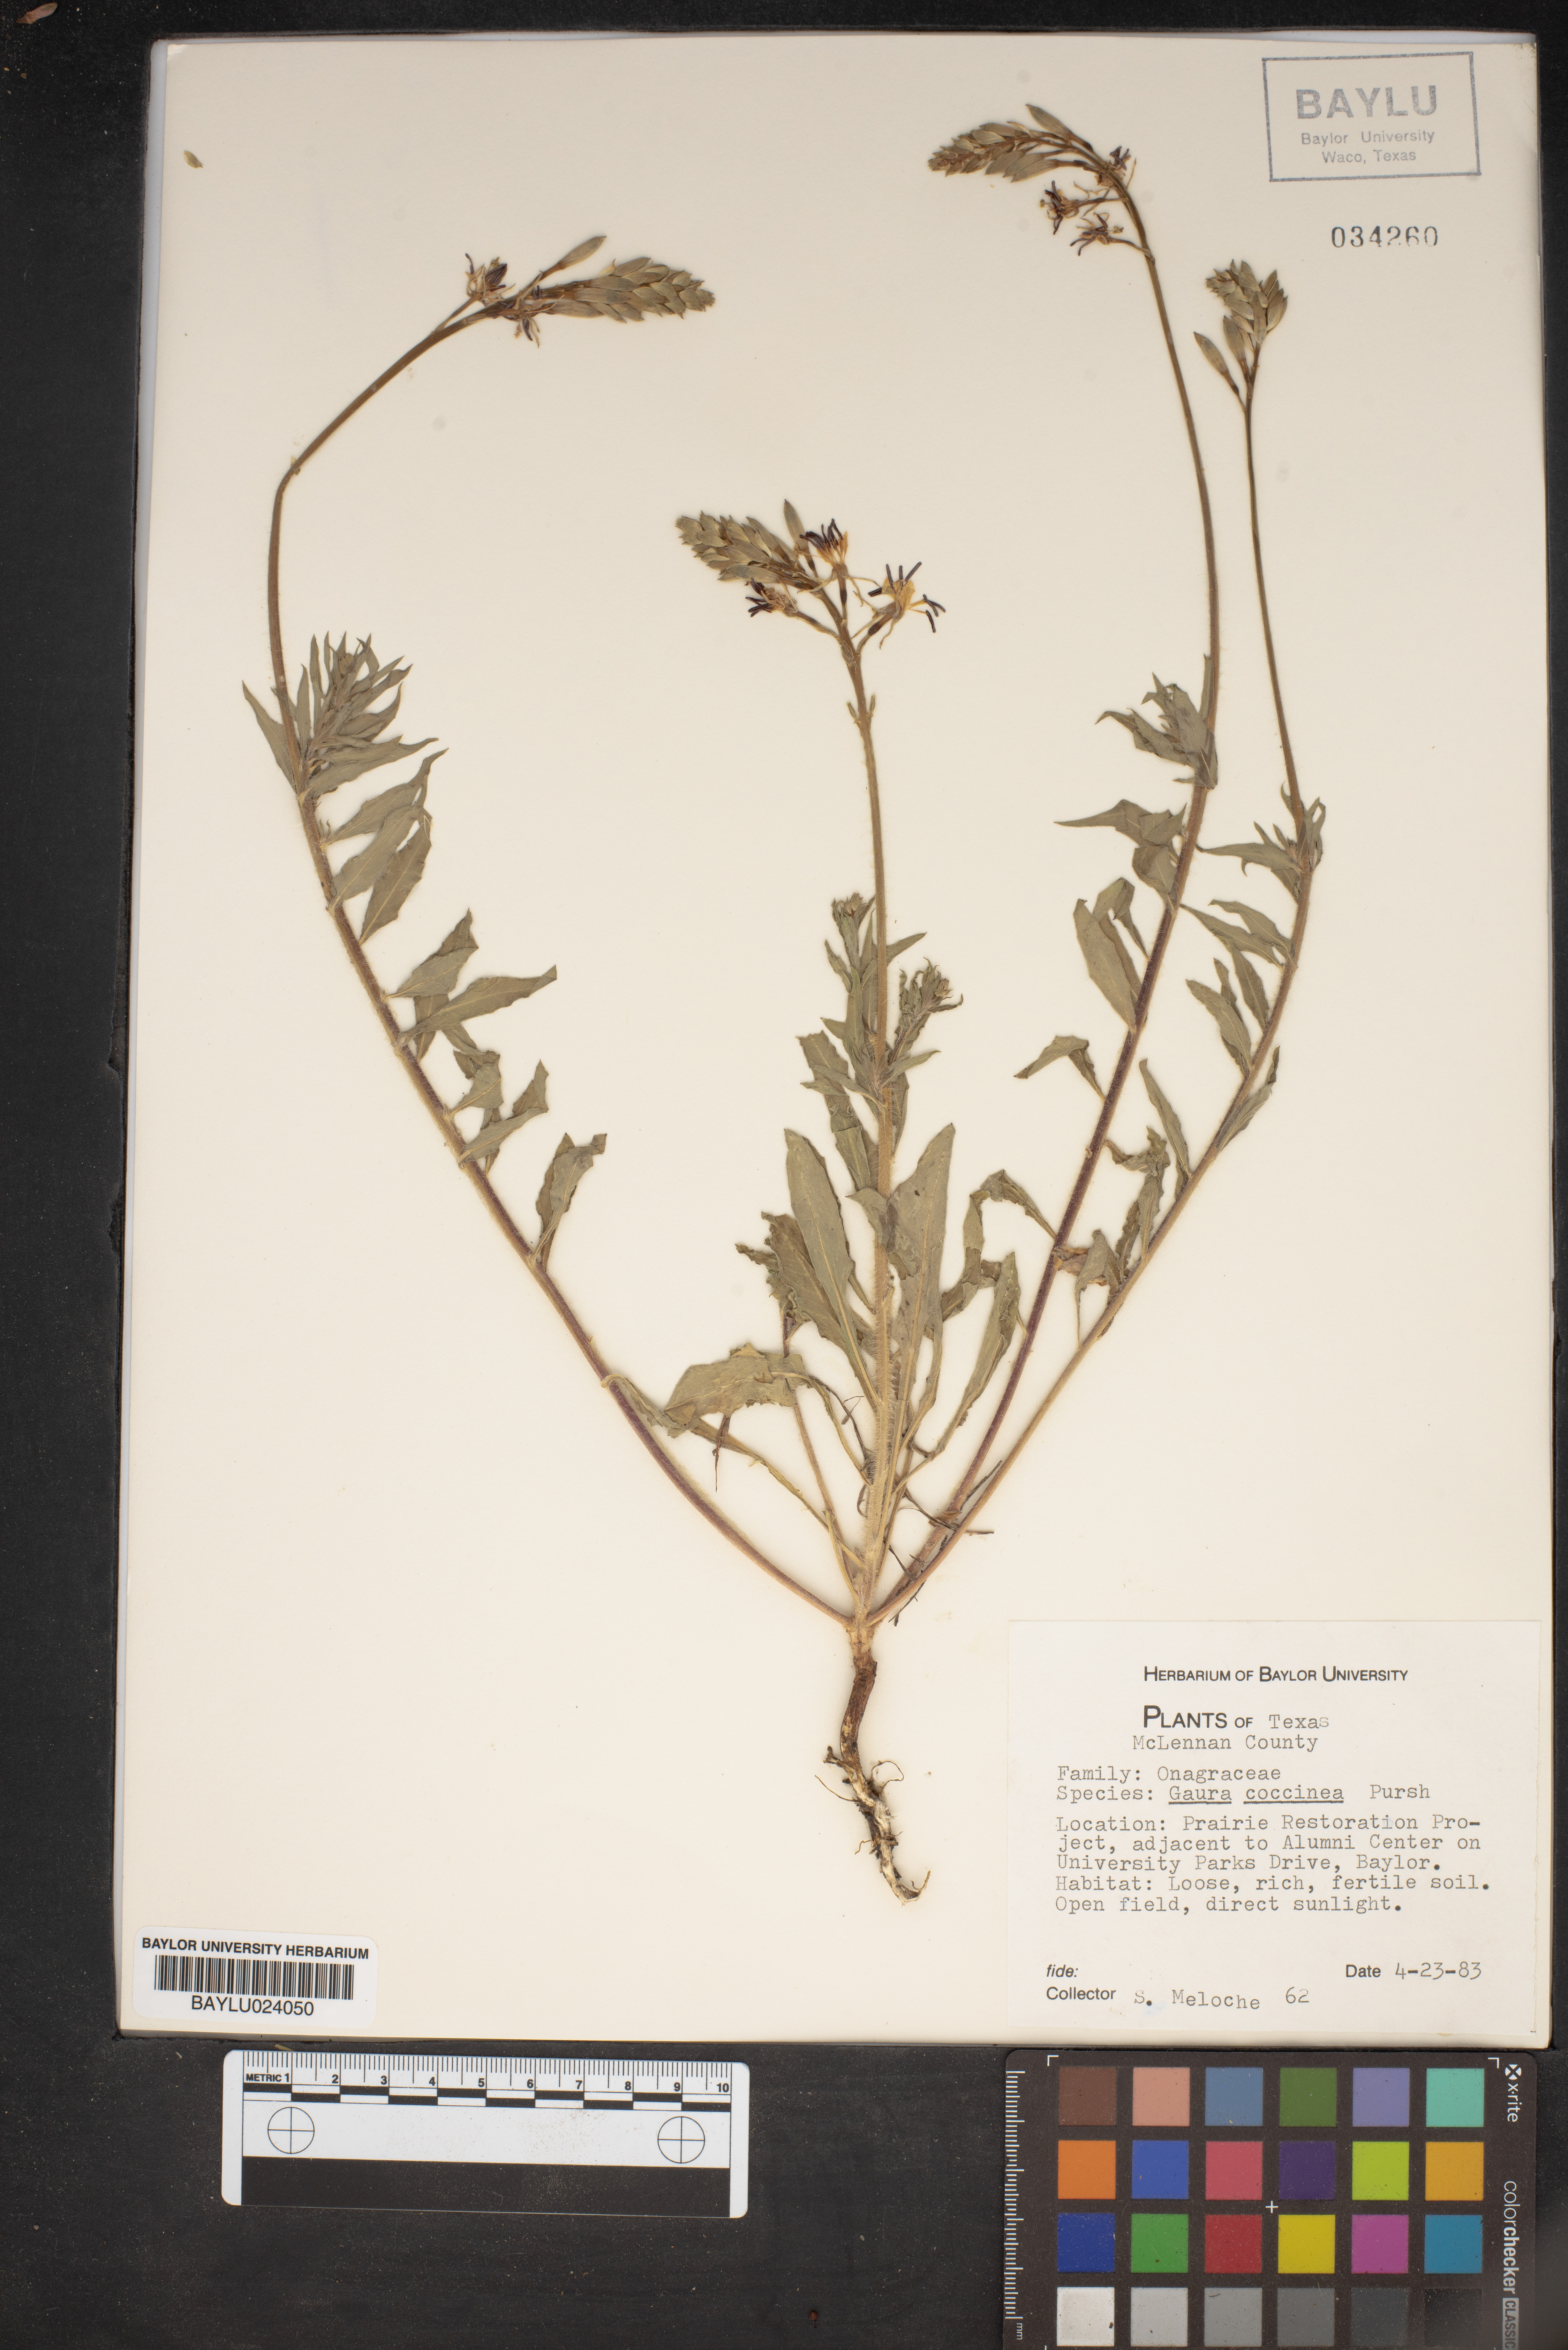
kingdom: Plantae
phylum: Tracheophyta
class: Magnoliopsida
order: Myrtales
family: Onagraceae
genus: Oenothera
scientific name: Oenothera suffrutescens
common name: Scarlet beeblossom
